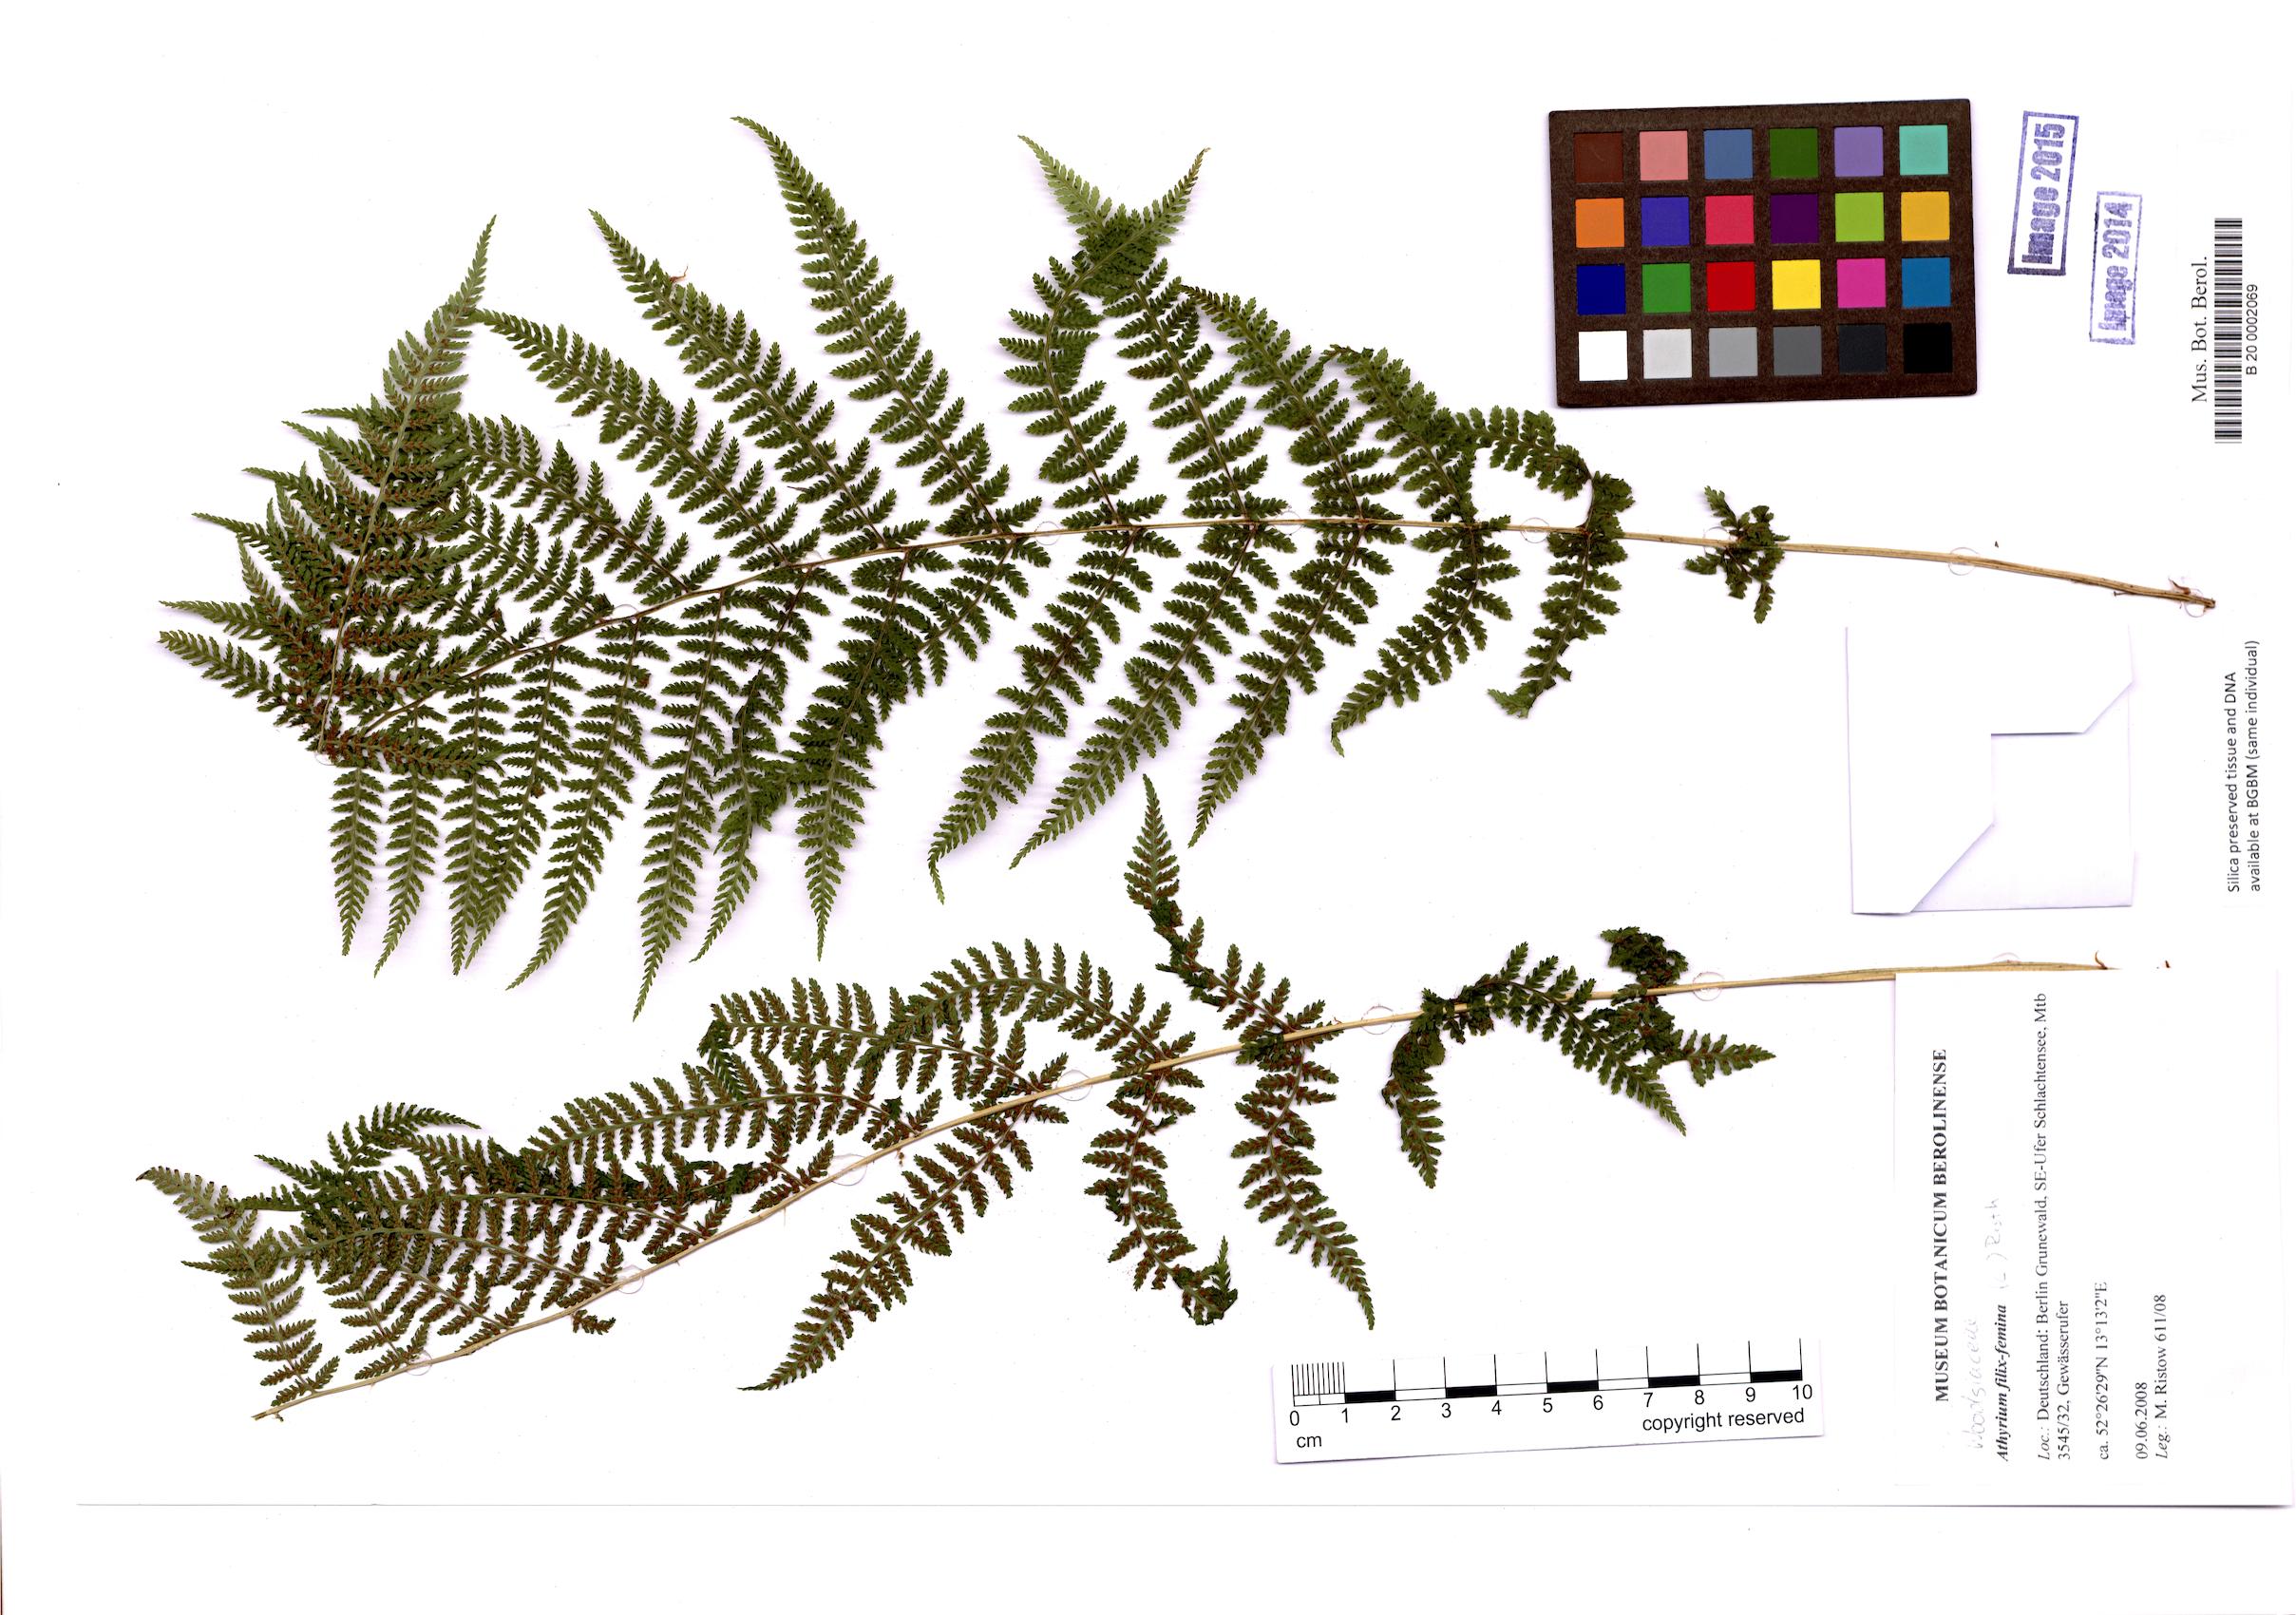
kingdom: Plantae
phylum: Tracheophyta
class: Polypodiopsida
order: Polypodiales
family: Athyriaceae
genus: Athyrium
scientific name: Athyrium filix-femina
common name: Lady fern
